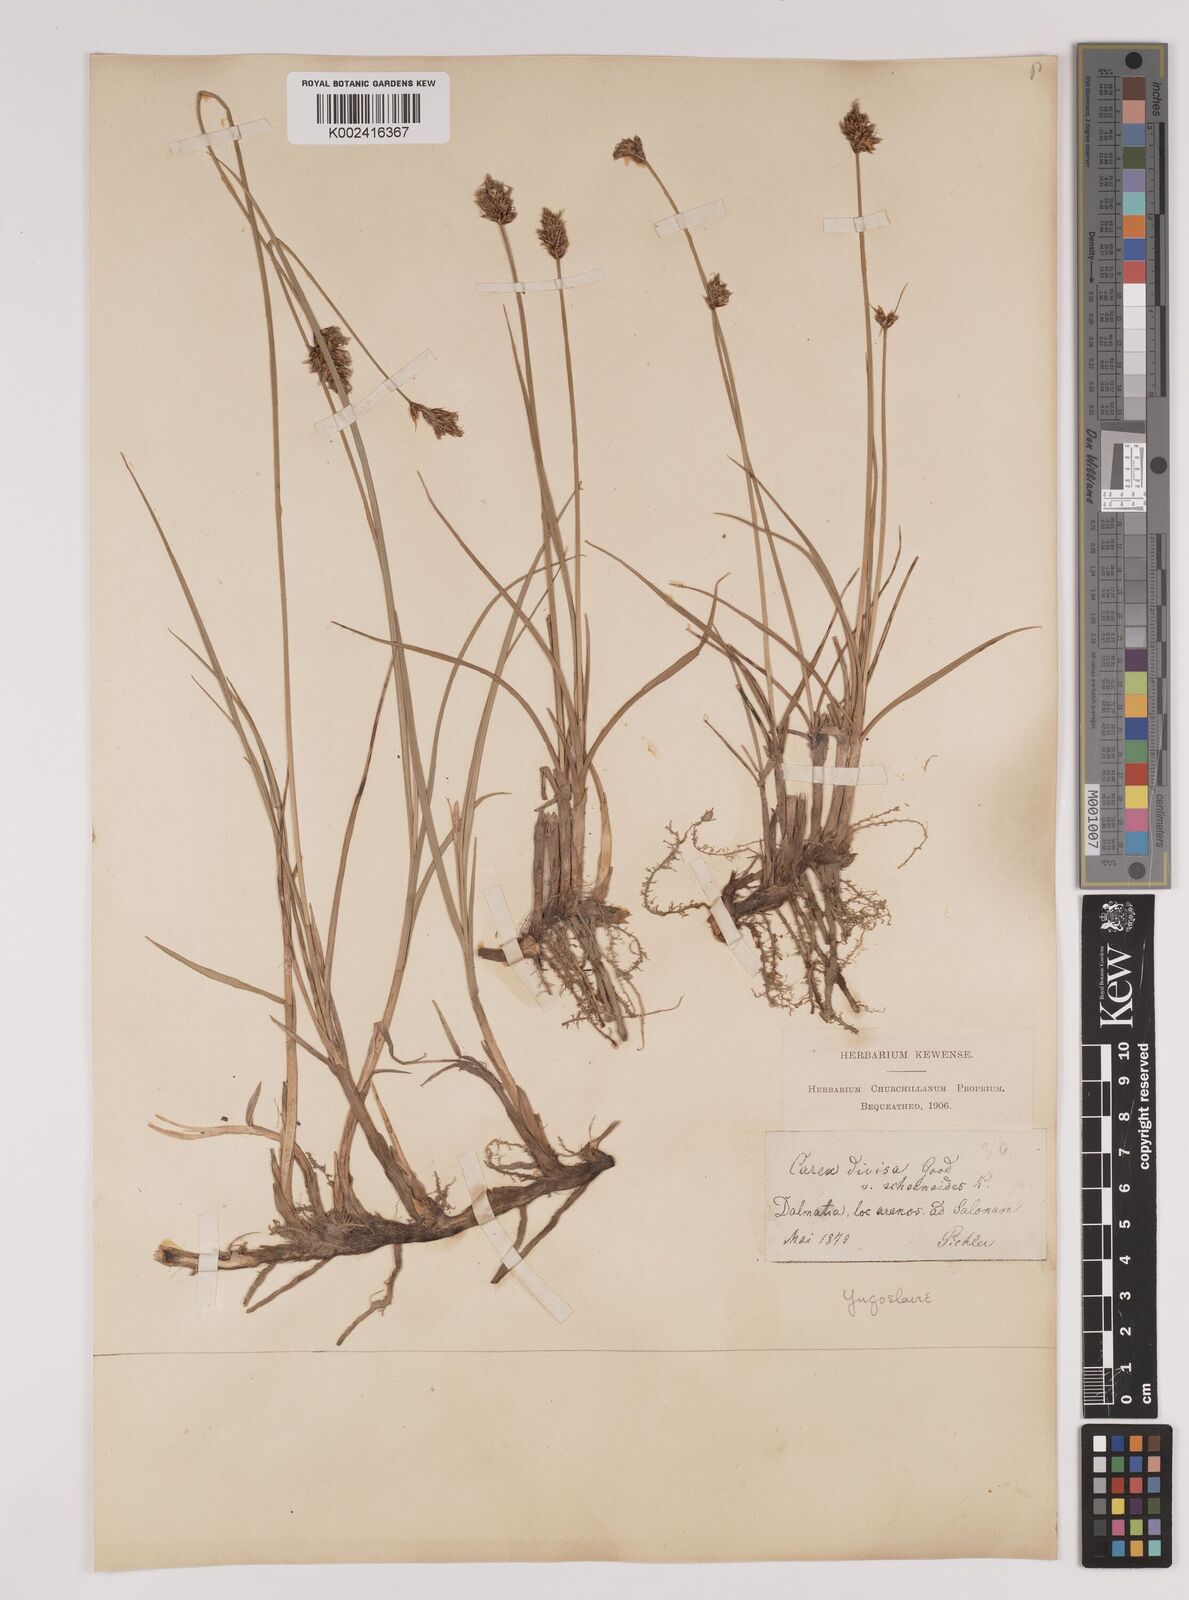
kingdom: Plantae
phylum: Tracheophyta
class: Liliopsida
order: Poales
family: Cyperaceae
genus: Carex
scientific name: Carex divisa
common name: Divided sedge
